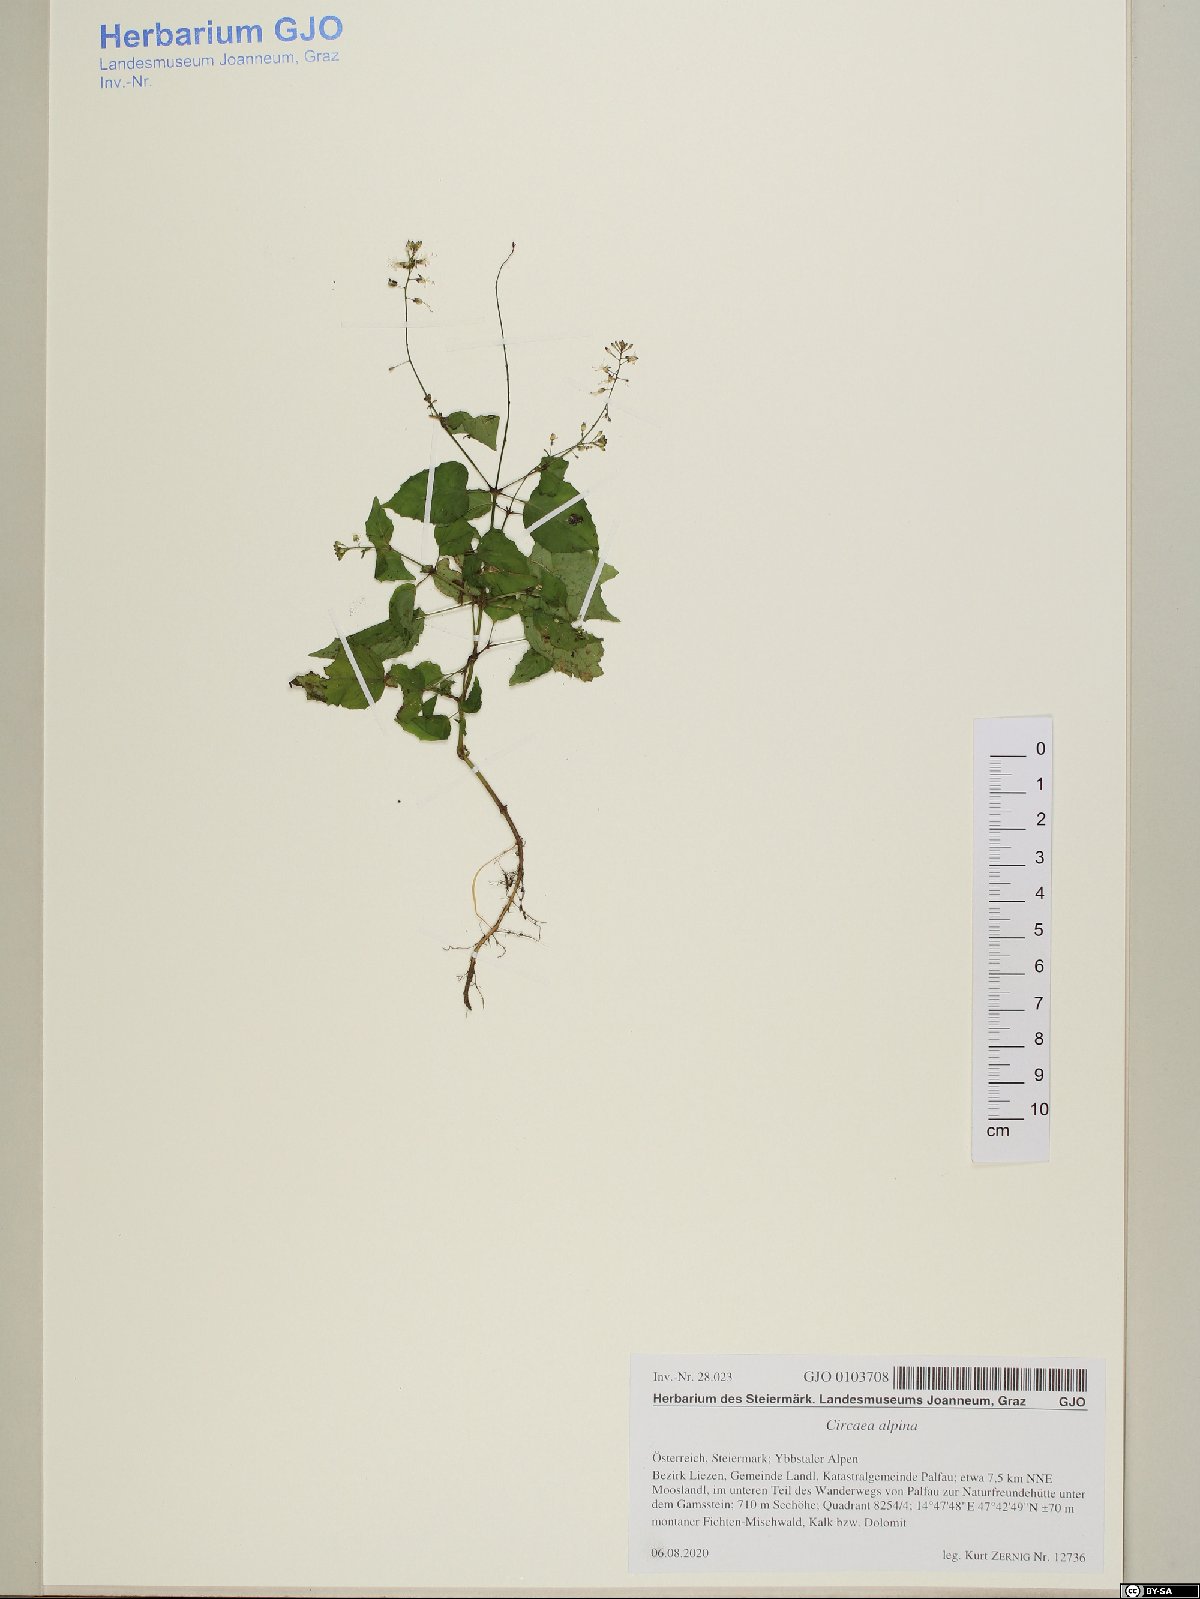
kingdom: Plantae
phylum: Tracheophyta
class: Magnoliopsida
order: Myrtales
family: Onagraceae
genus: Circaea
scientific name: Circaea alpina
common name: Alpine enchanter's-nightshade
